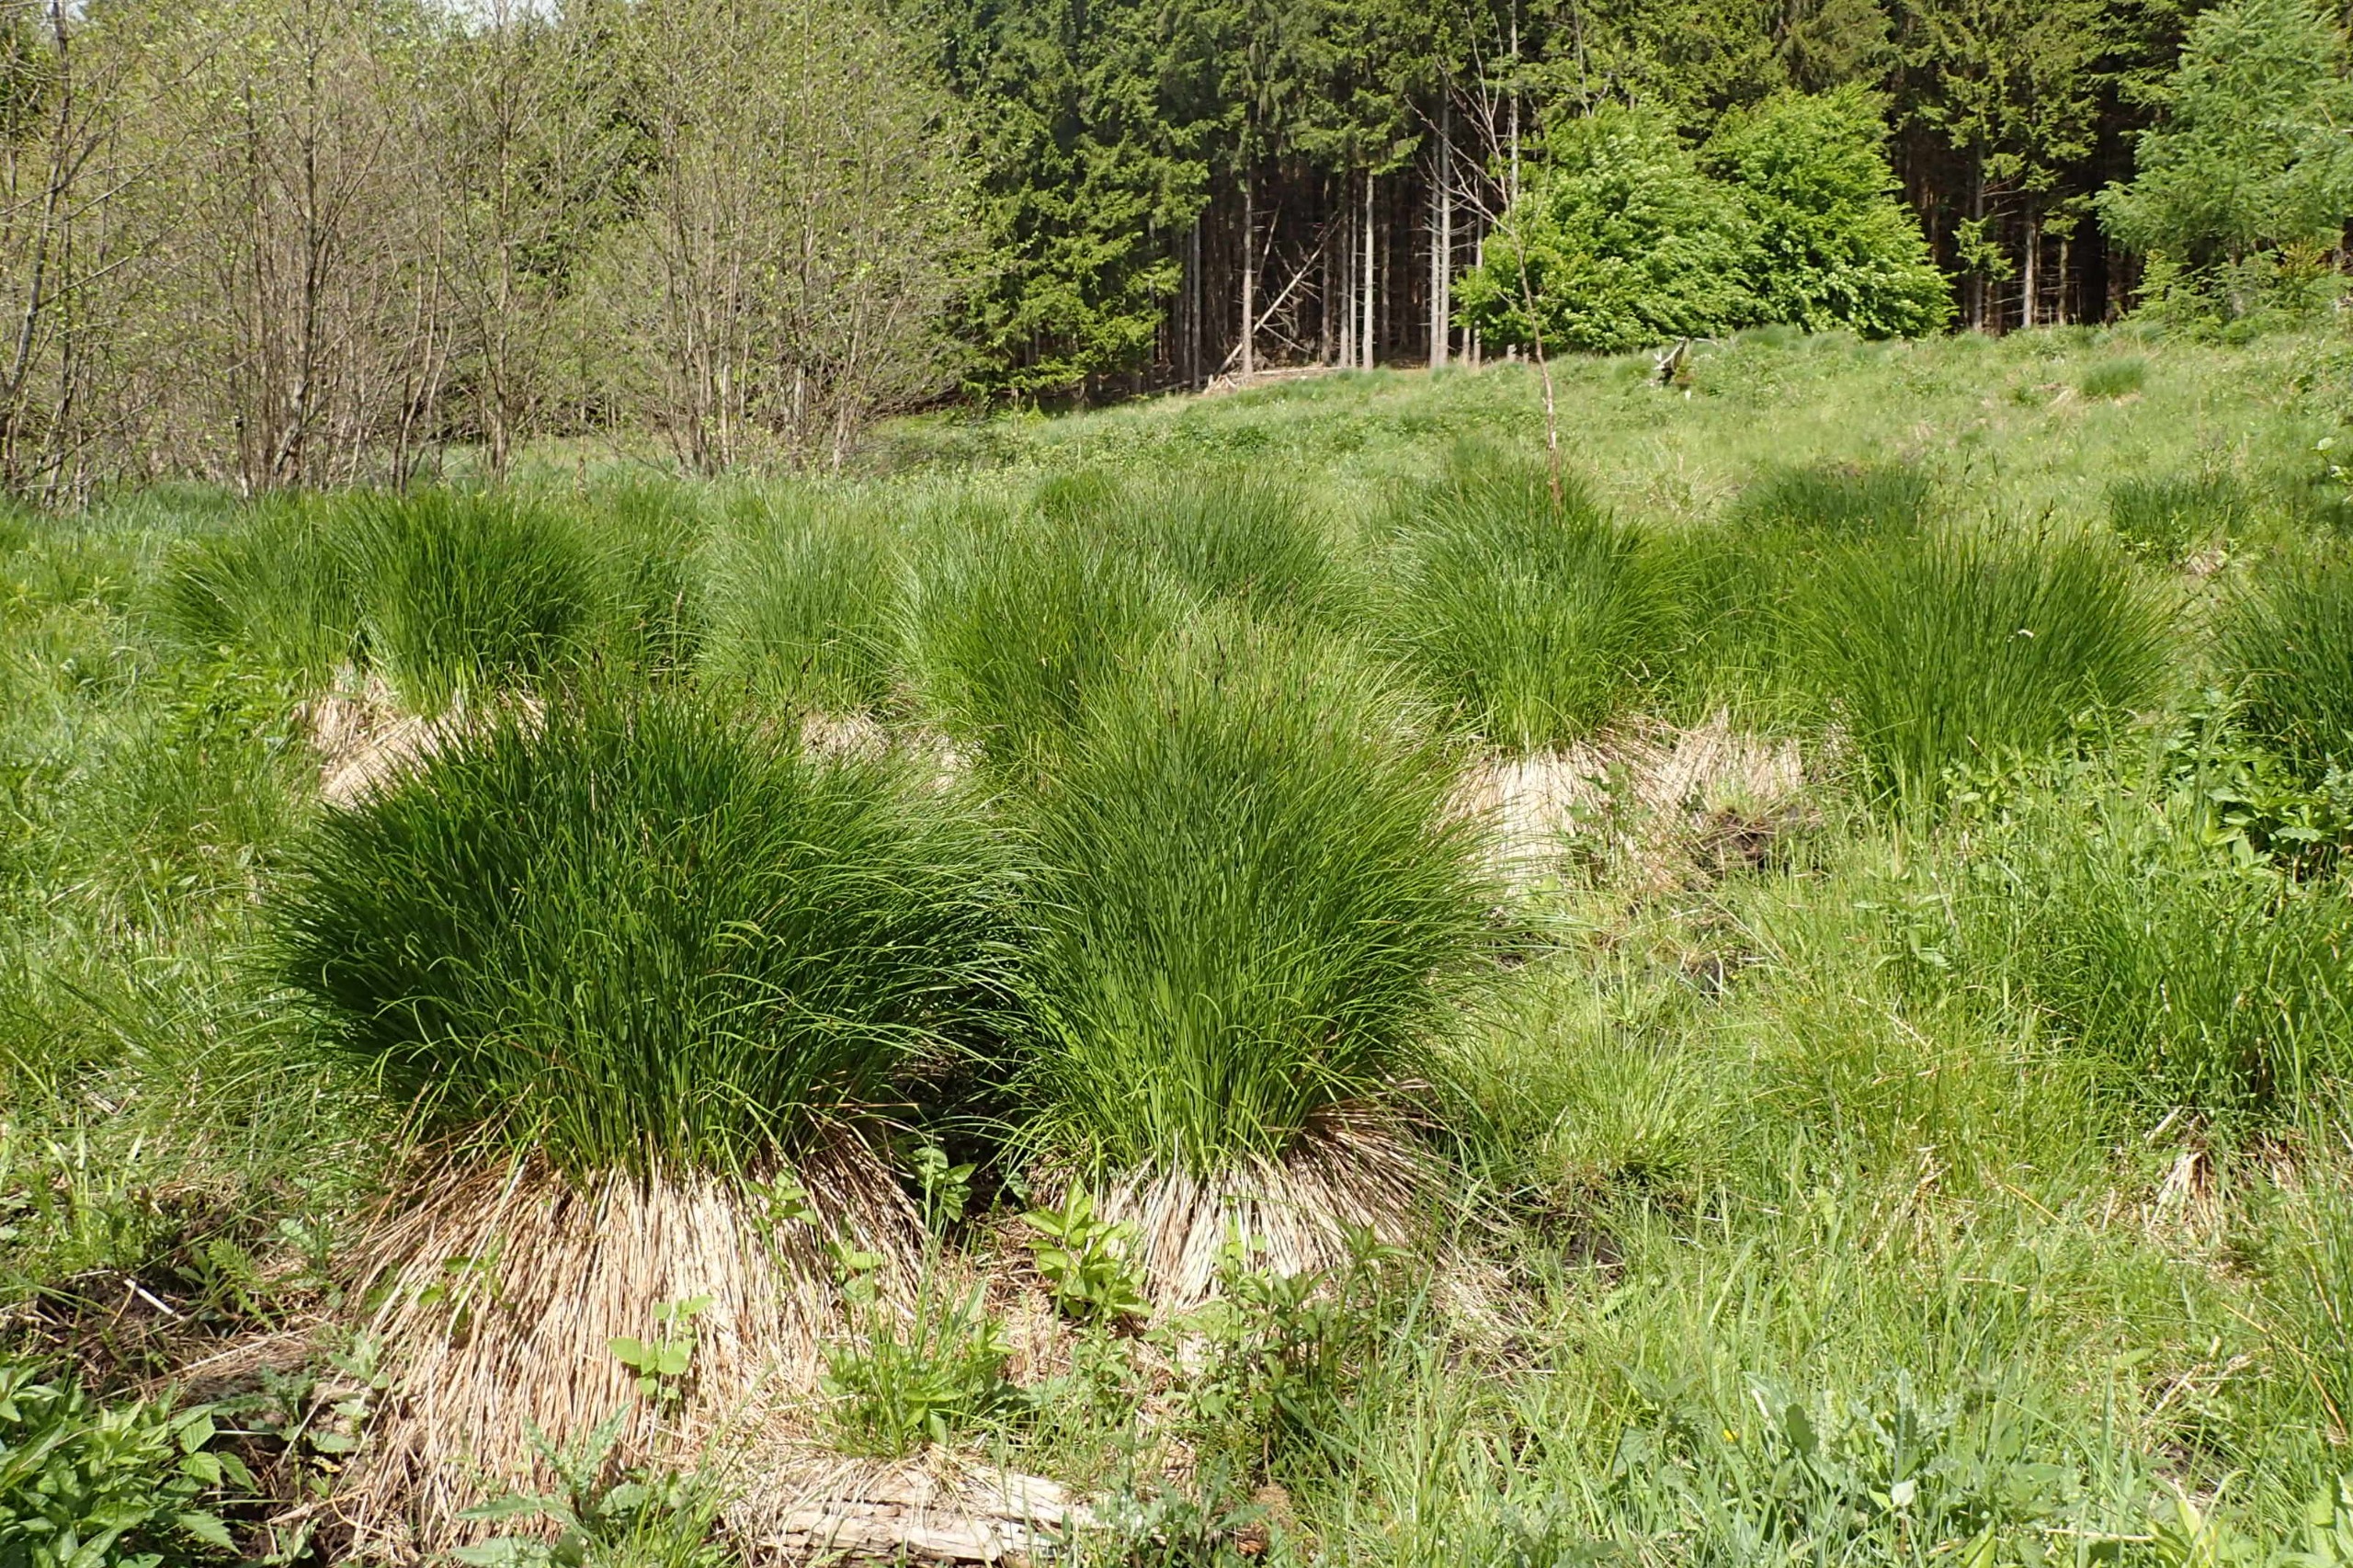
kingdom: Plantae
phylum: Tracheophyta
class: Liliopsida
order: Poales
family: Cyperaceae
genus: Carex
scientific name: Carex cespitosa
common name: Tue-star
